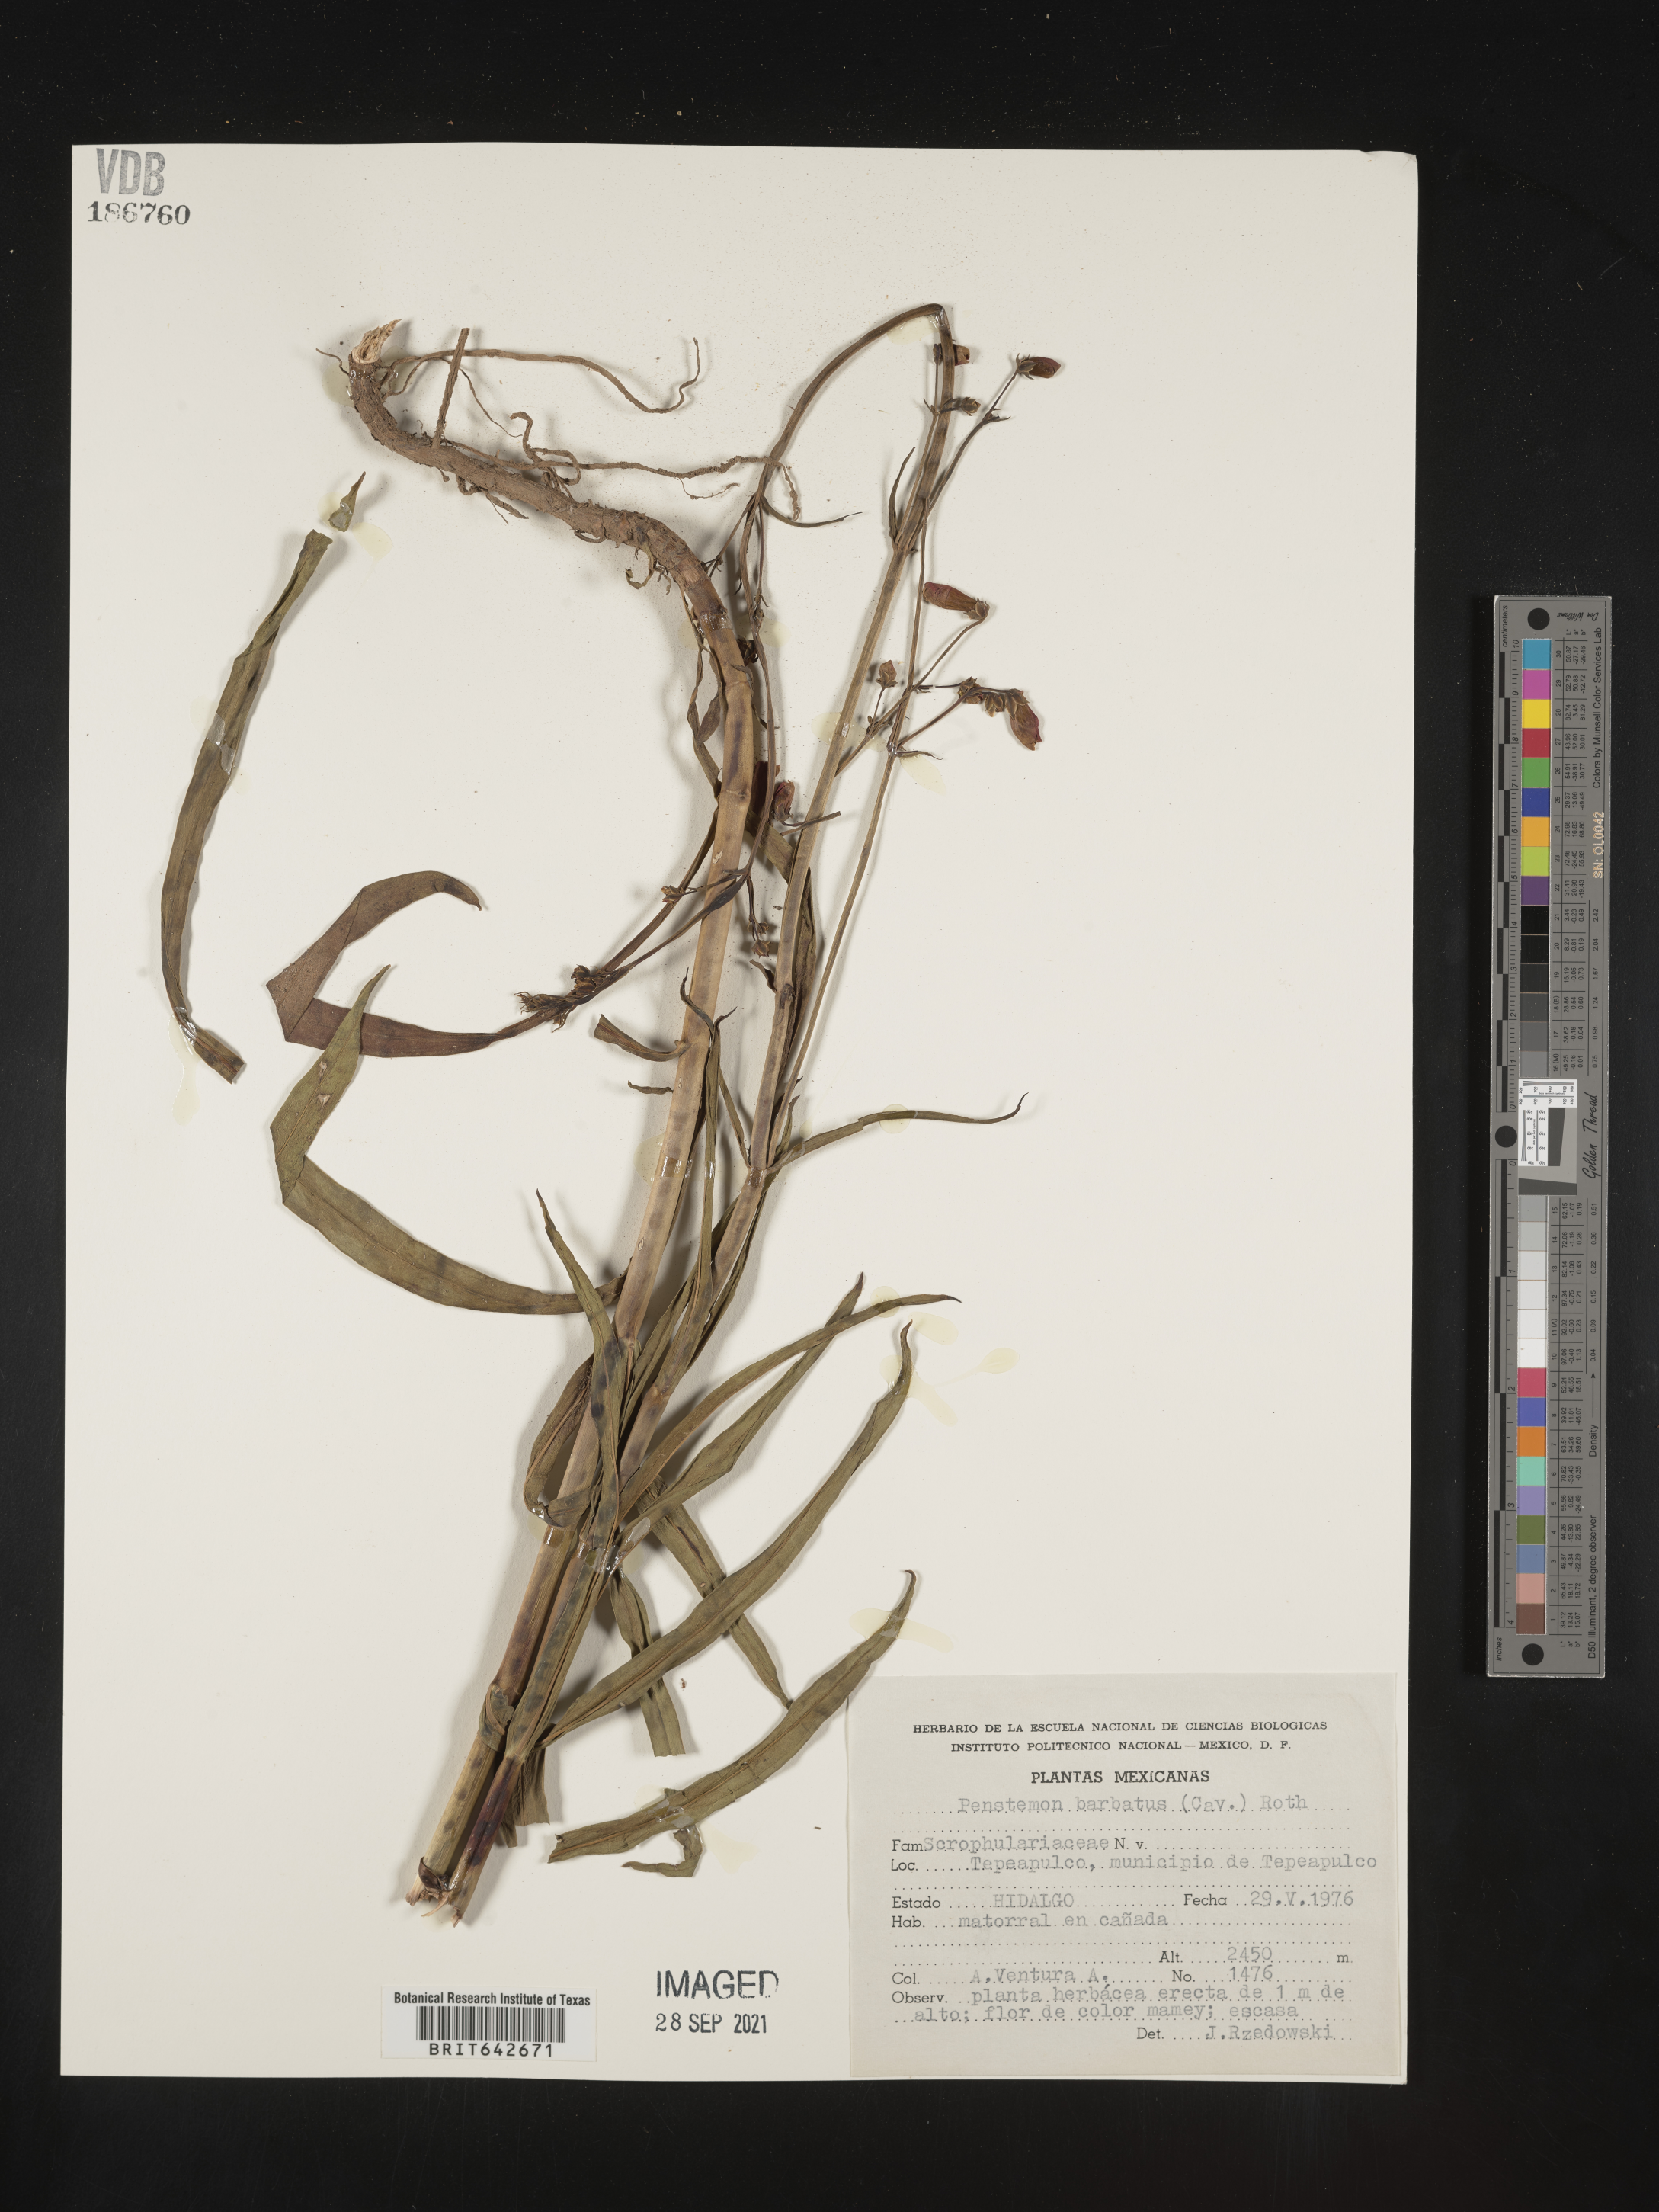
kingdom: Plantae
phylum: Tracheophyta
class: Magnoliopsida
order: Lamiales
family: Plantaginaceae
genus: Penstemon
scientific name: Penstemon
